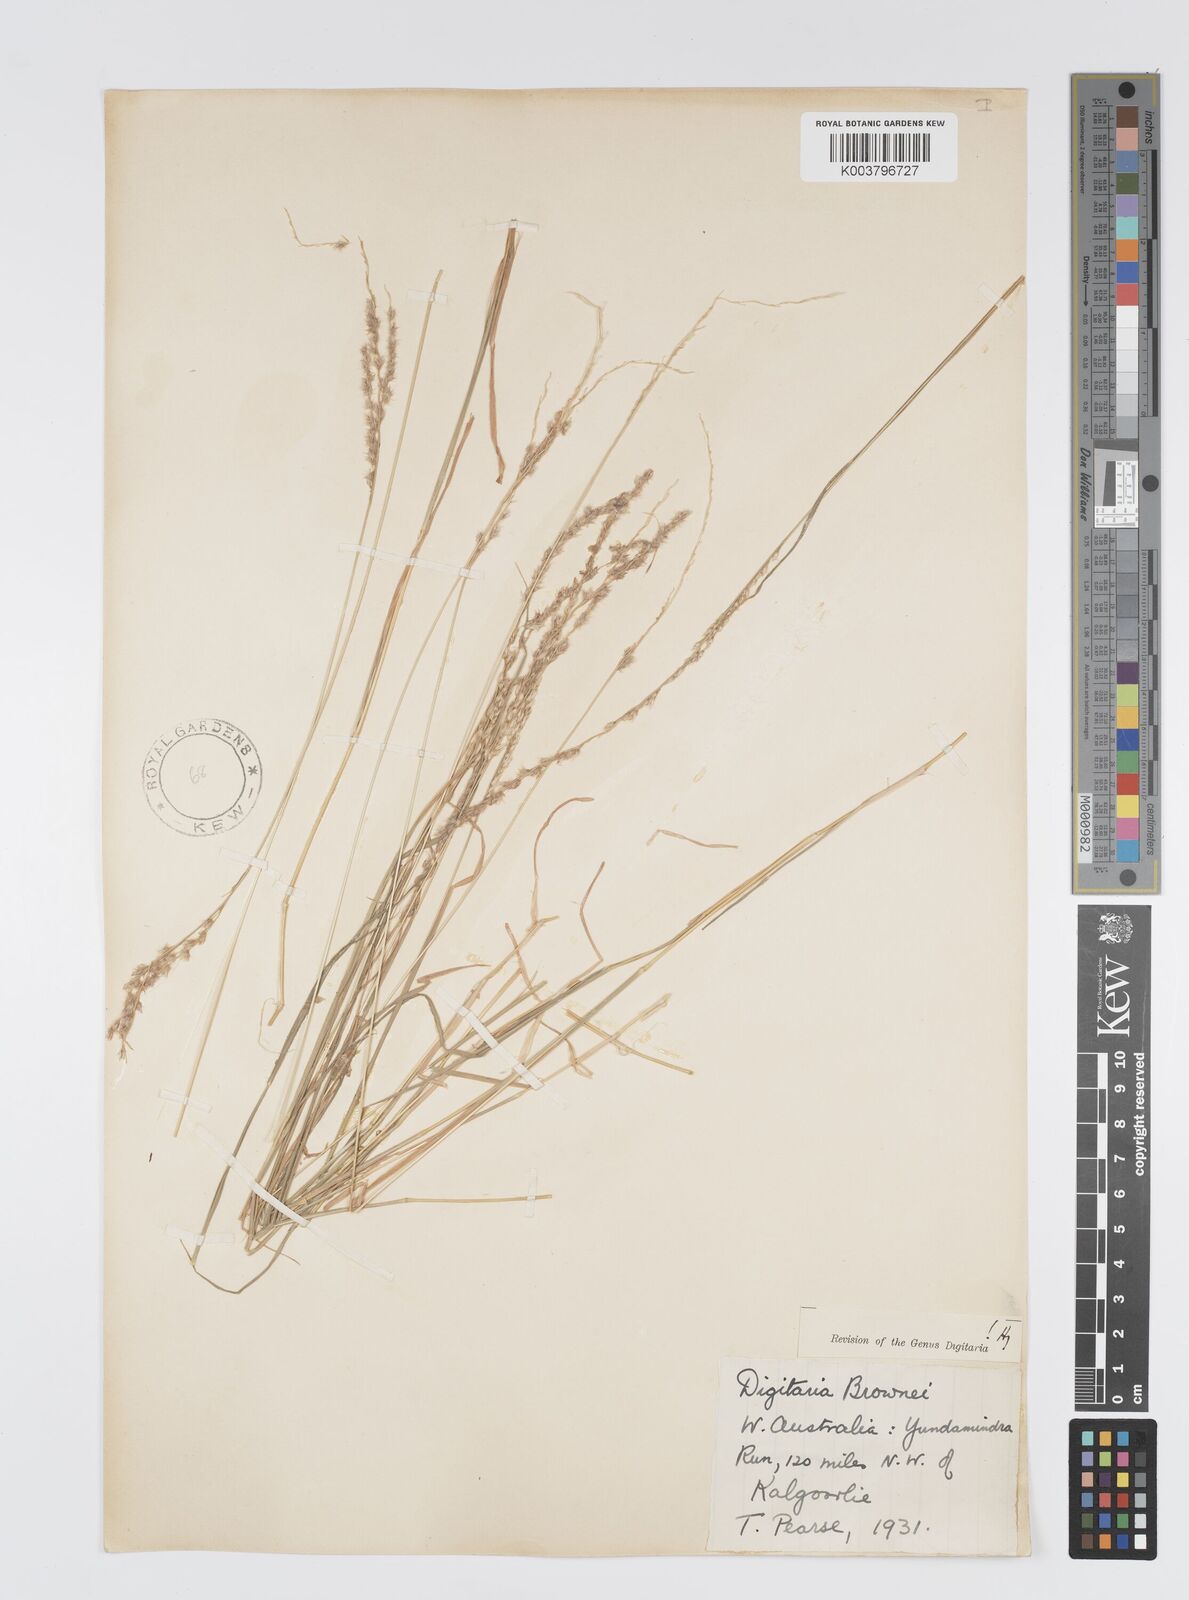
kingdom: Plantae
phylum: Tracheophyta
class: Liliopsida
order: Poales
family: Poaceae
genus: Digitaria
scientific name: Digitaria brownii
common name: Cotton grass
